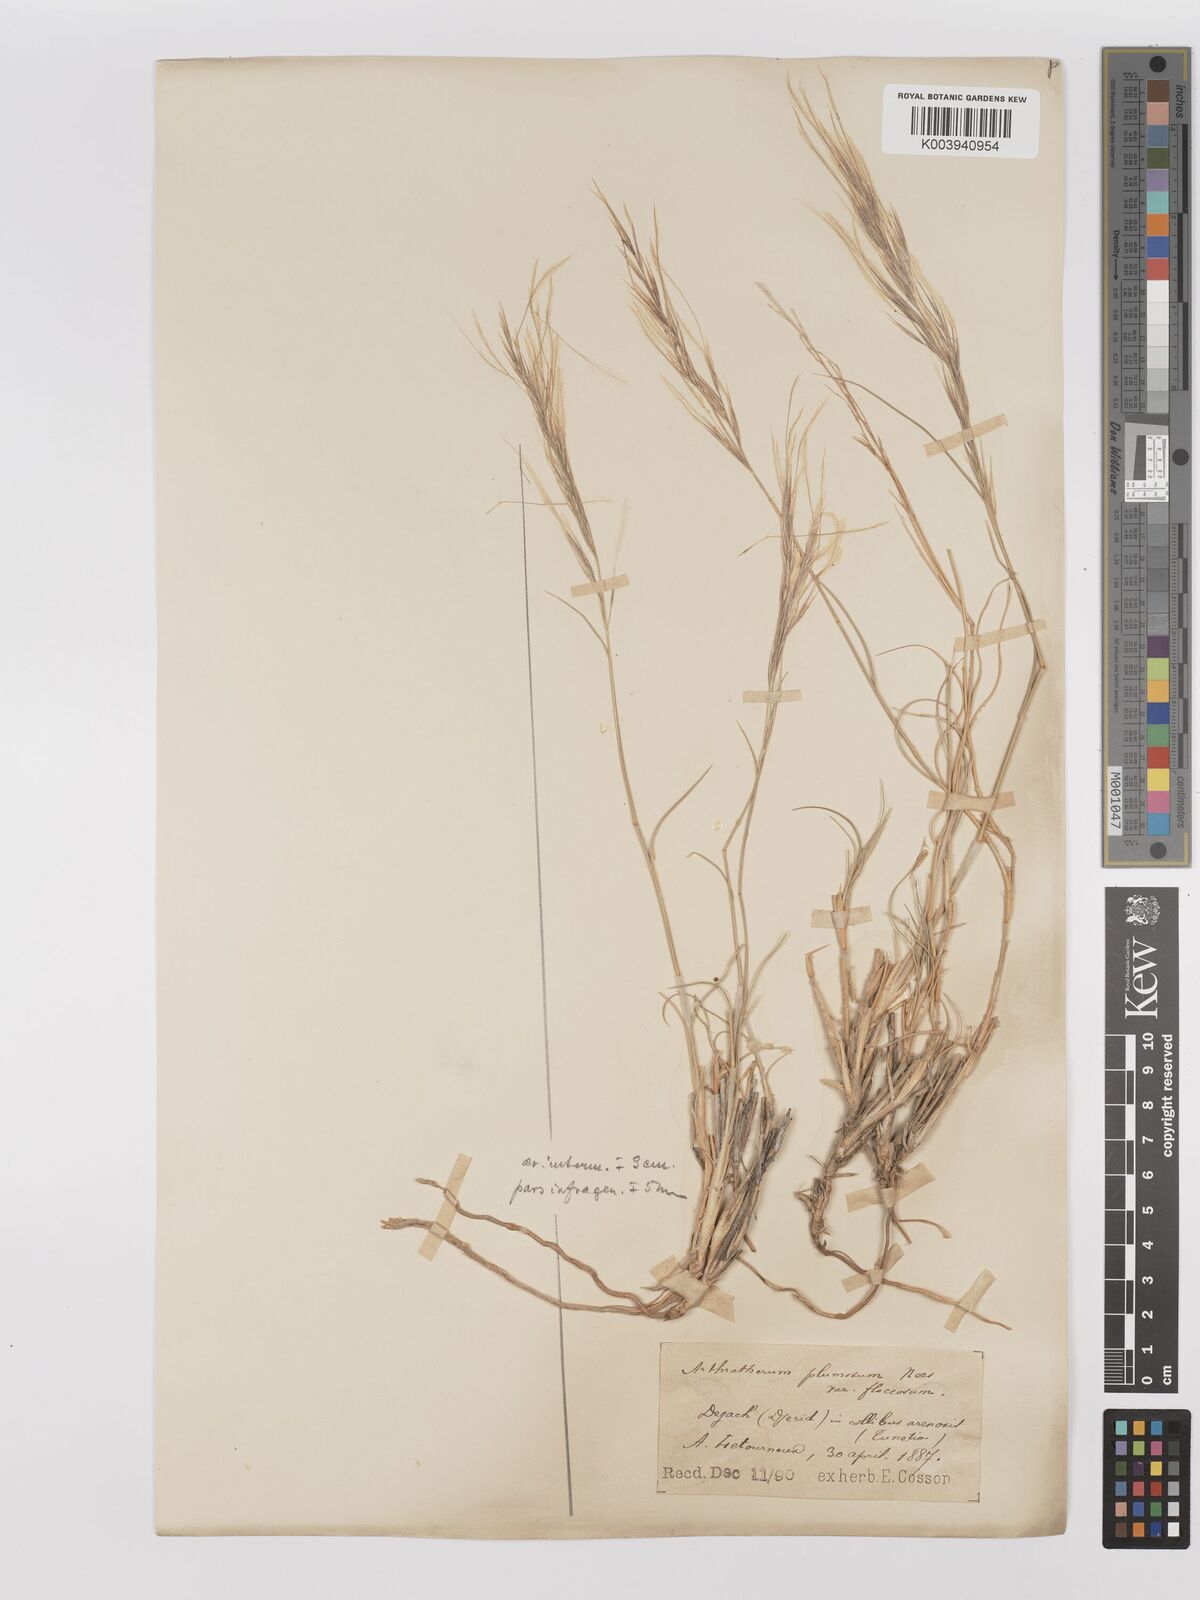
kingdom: Plantae
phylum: Tracheophyta
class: Liliopsida
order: Poales
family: Poaceae
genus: Stipagrostis
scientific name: Stipagrostis plumosa
